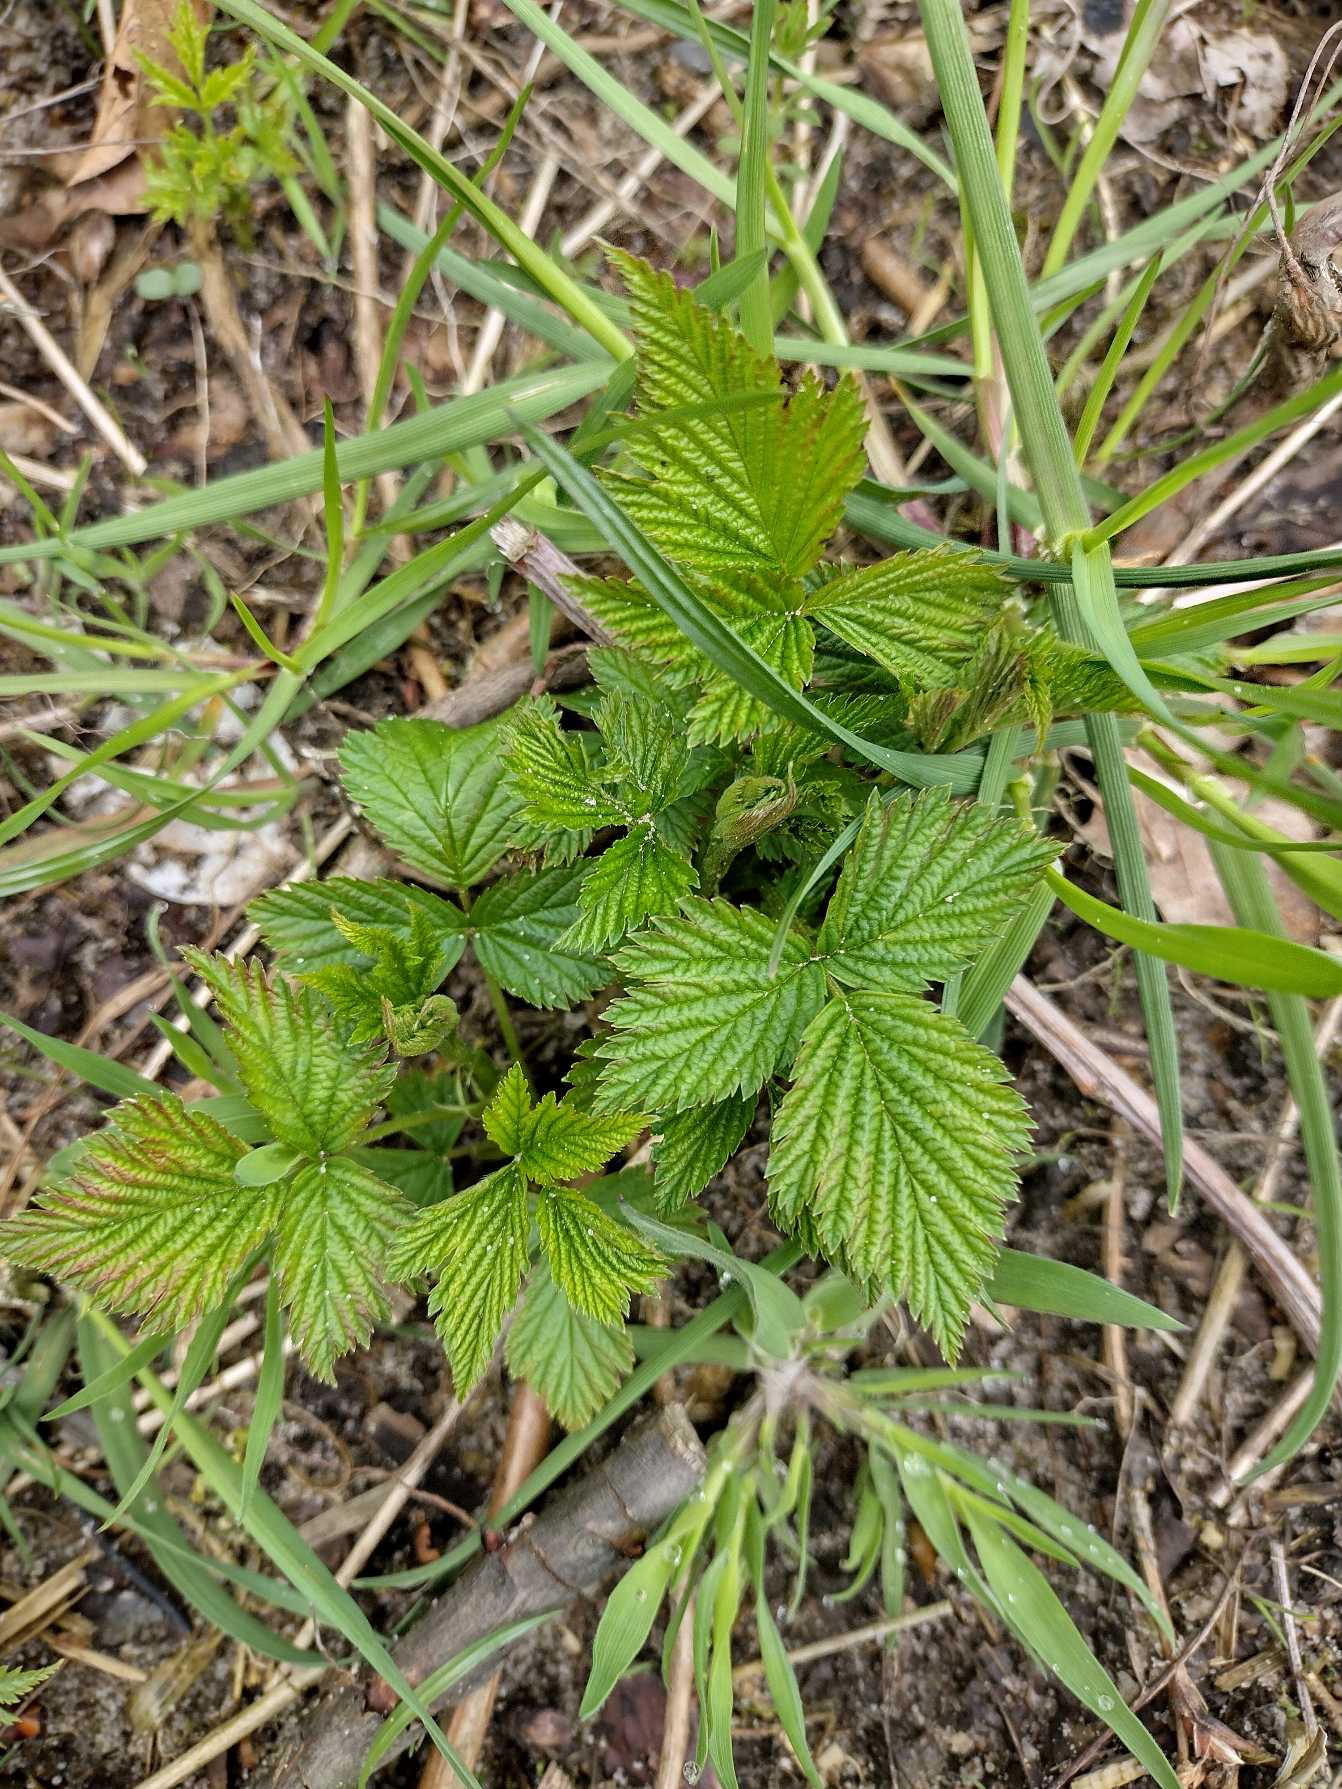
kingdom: Plantae
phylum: Tracheophyta
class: Magnoliopsida
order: Rosales
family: Rosaceae
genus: Rubus
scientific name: Rubus spectabilis
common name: Laksebær
